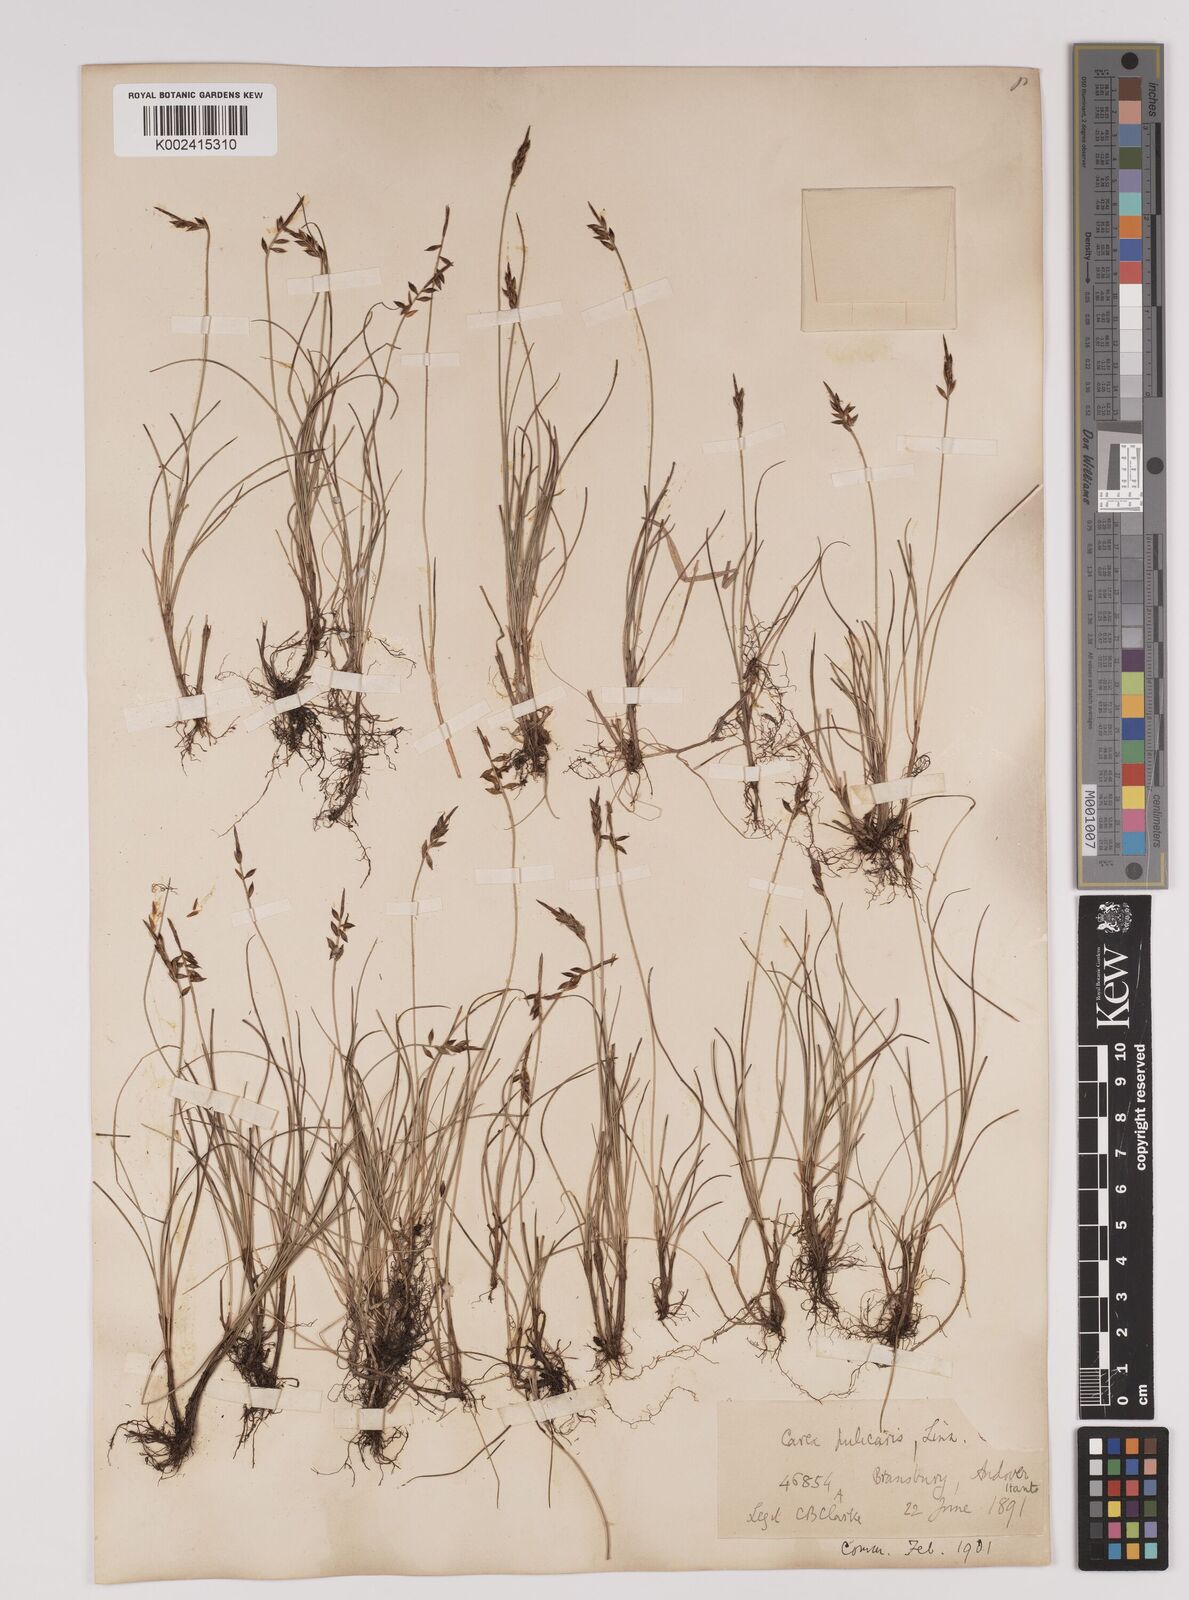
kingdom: Plantae
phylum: Tracheophyta
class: Liliopsida
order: Poales
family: Cyperaceae
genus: Carex
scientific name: Carex pulicaris
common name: Flea sedge
